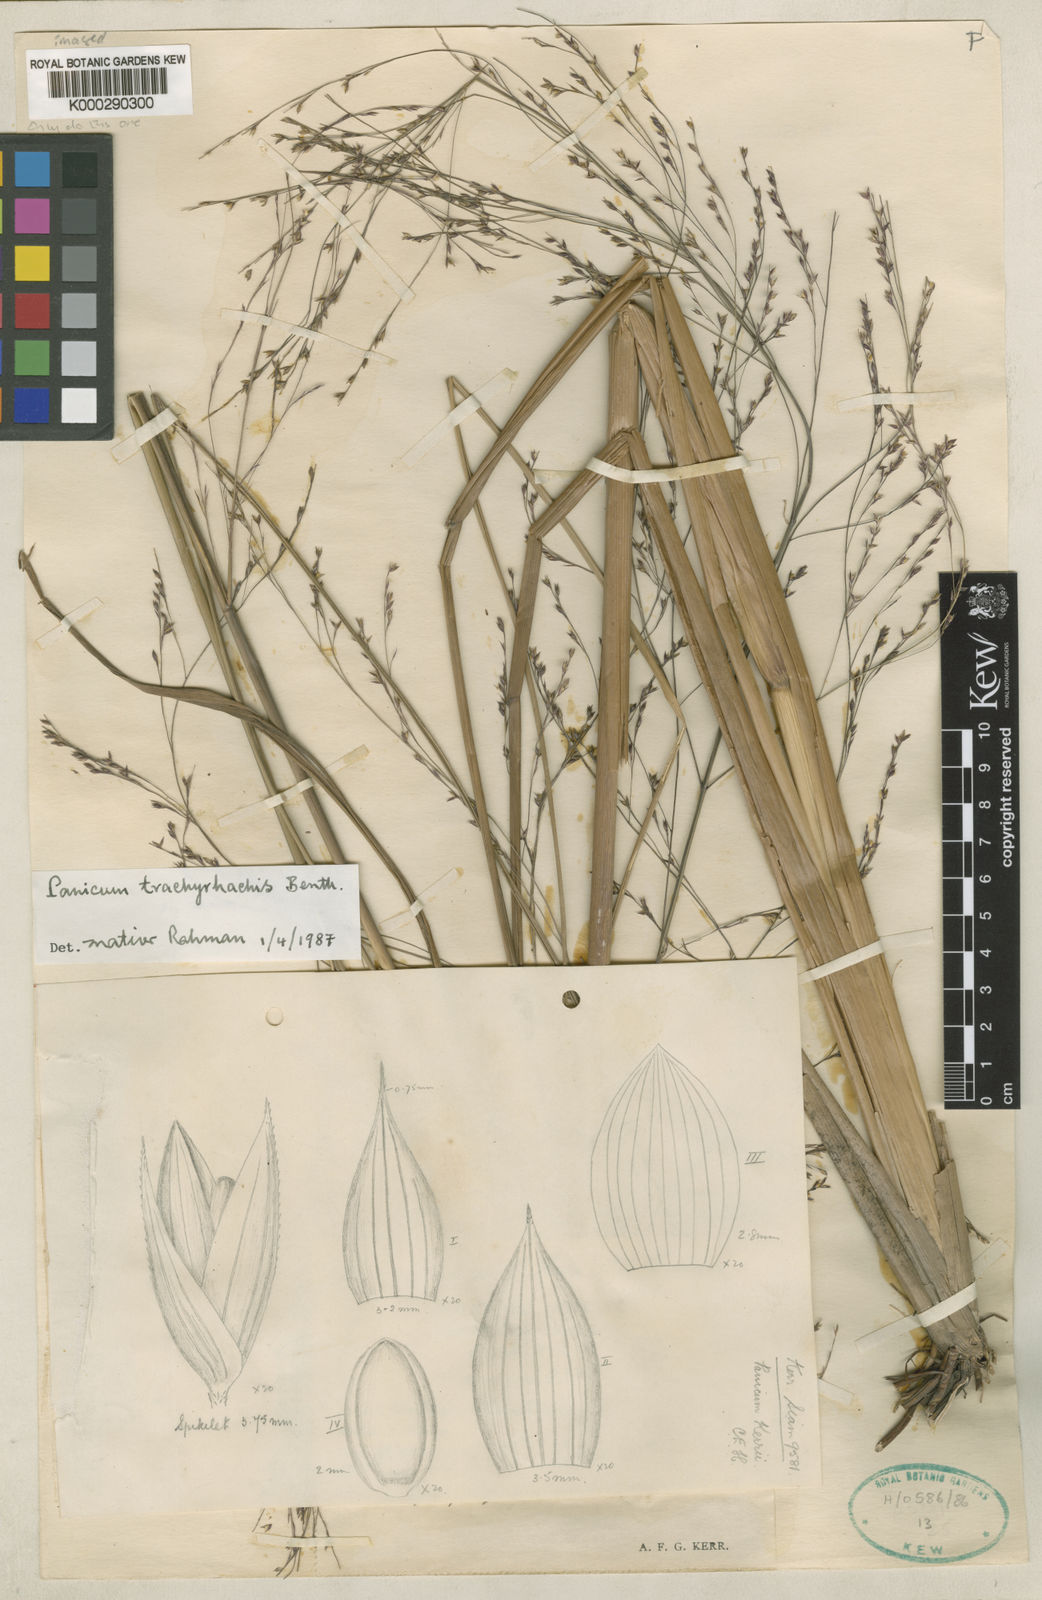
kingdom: Plantae
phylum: Tracheophyta
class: Liliopsida
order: Poales
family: Poaceae
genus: Panicum
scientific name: Panicum trachyrhachis
